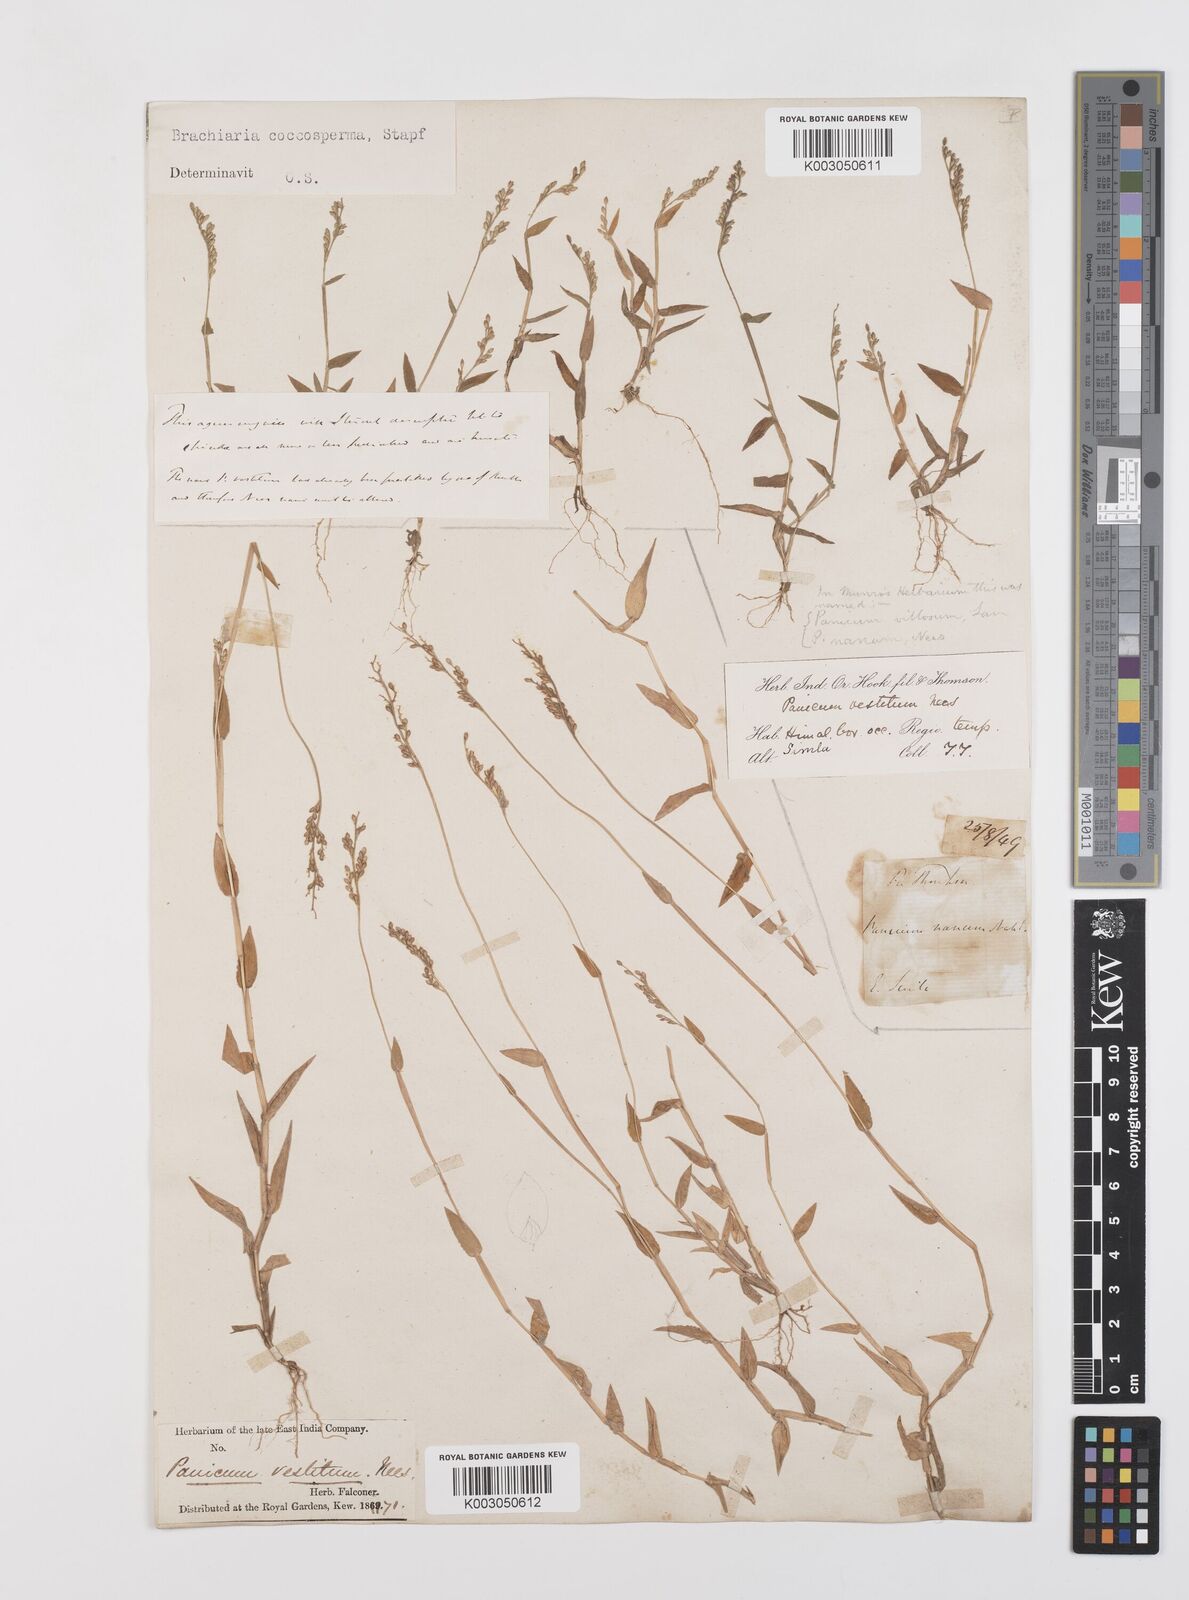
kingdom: Plantae
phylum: Tracheophyta
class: Liliopsida
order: Poales
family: Poaceae
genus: Urochloa
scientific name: Urochloa villosa
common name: Hairy signalgrass
